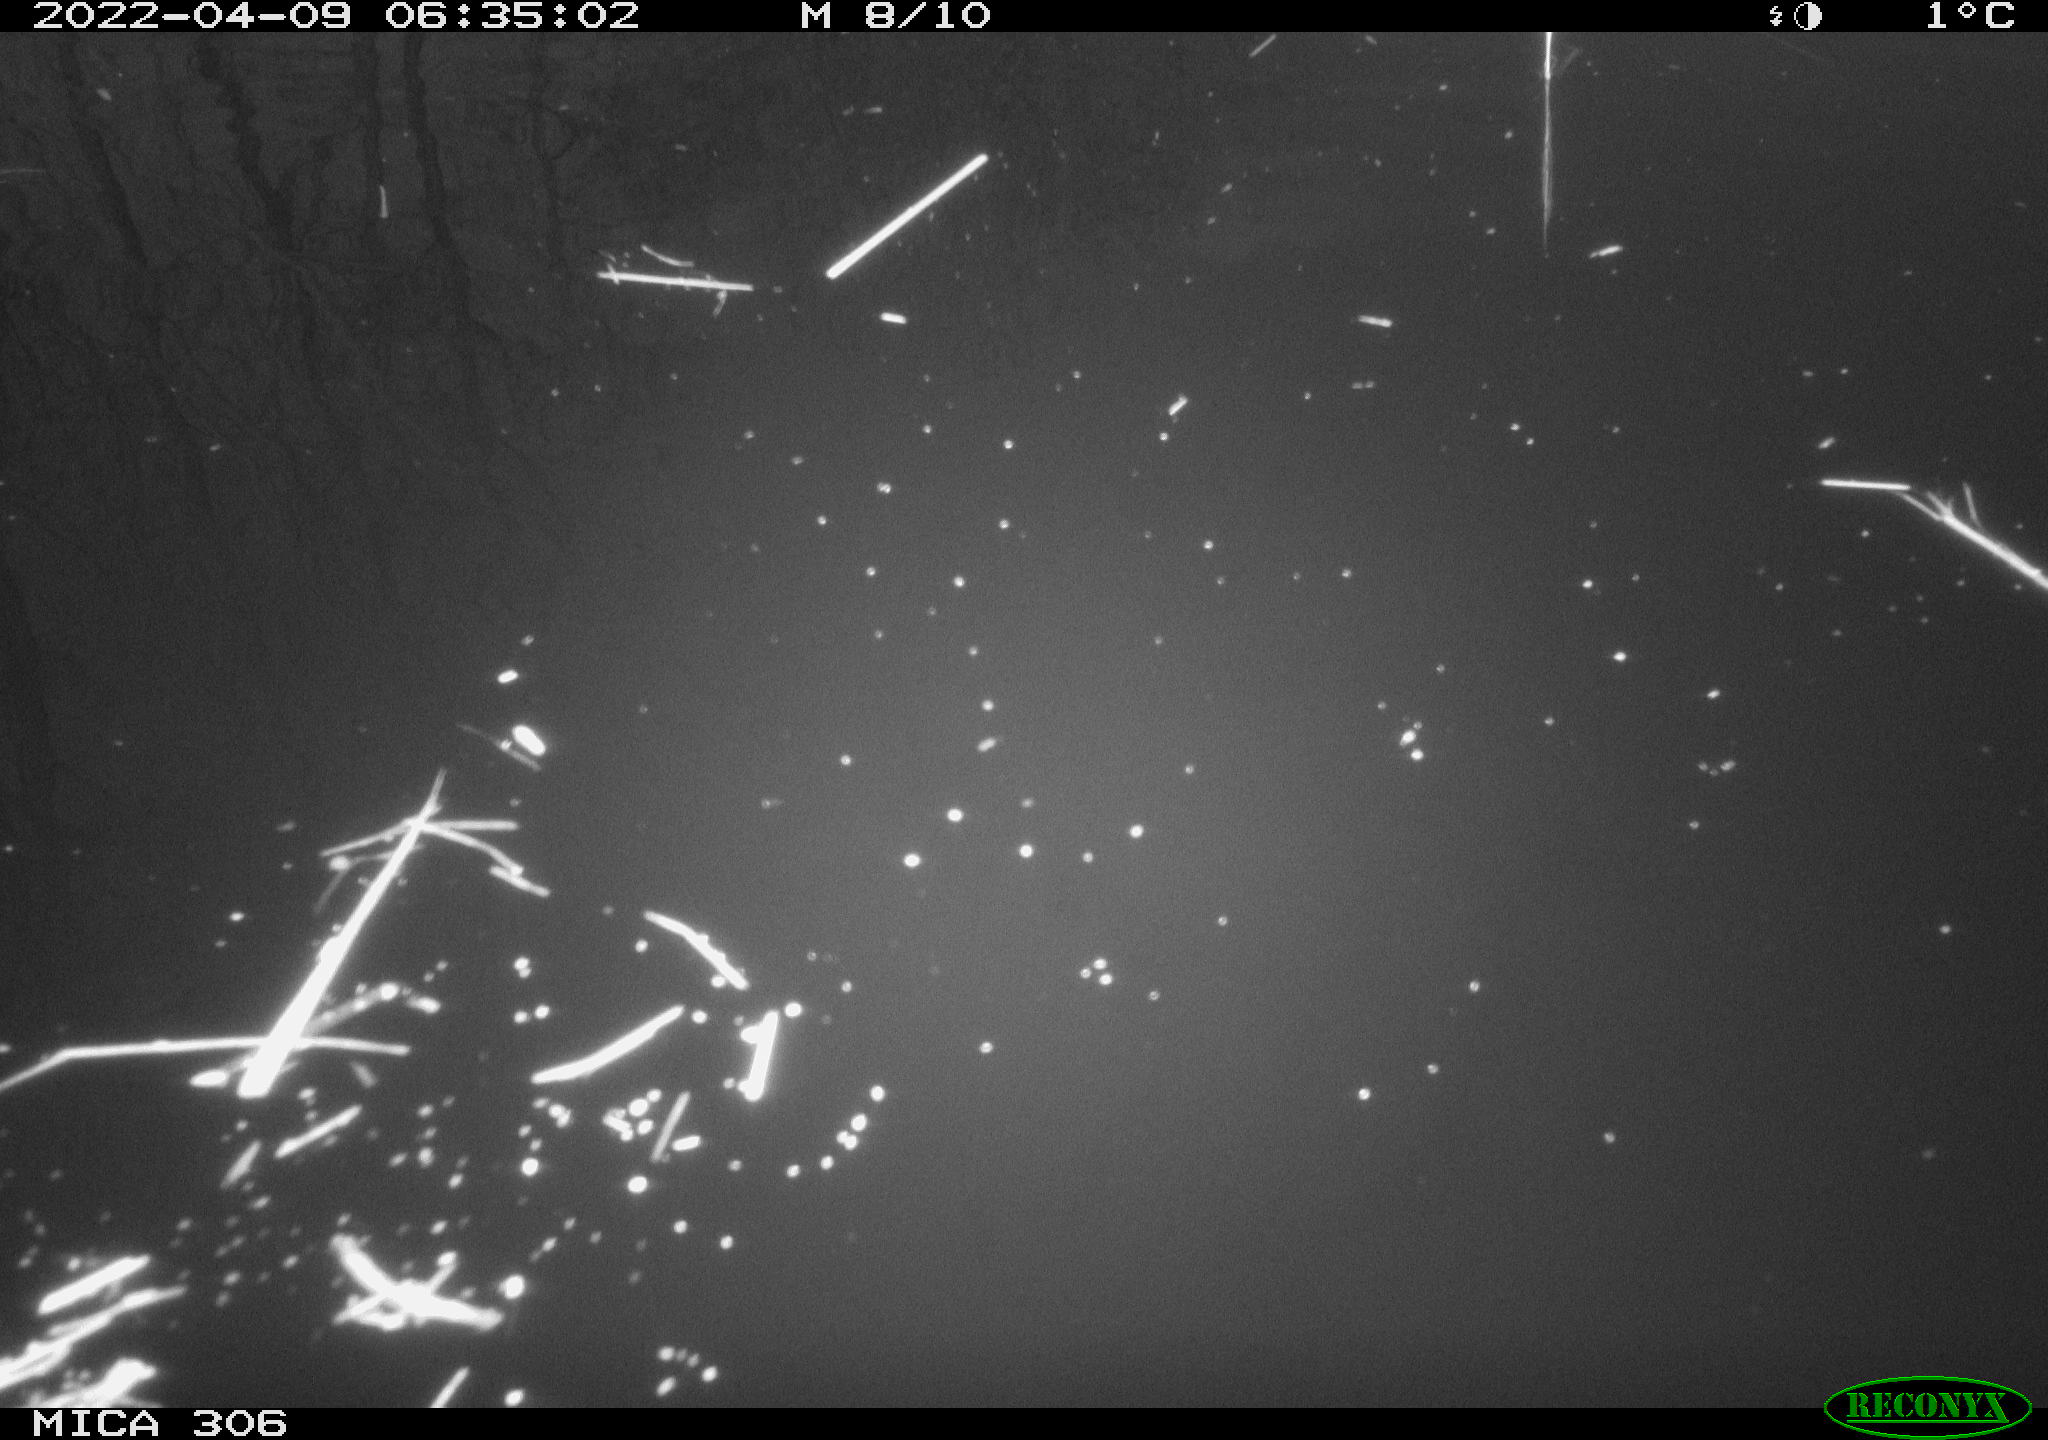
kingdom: Animalia
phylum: Chordata
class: Aves
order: Gruiformes
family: Rallidae
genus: Gallinula
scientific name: Gallinula chloropus
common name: Common moorhen
